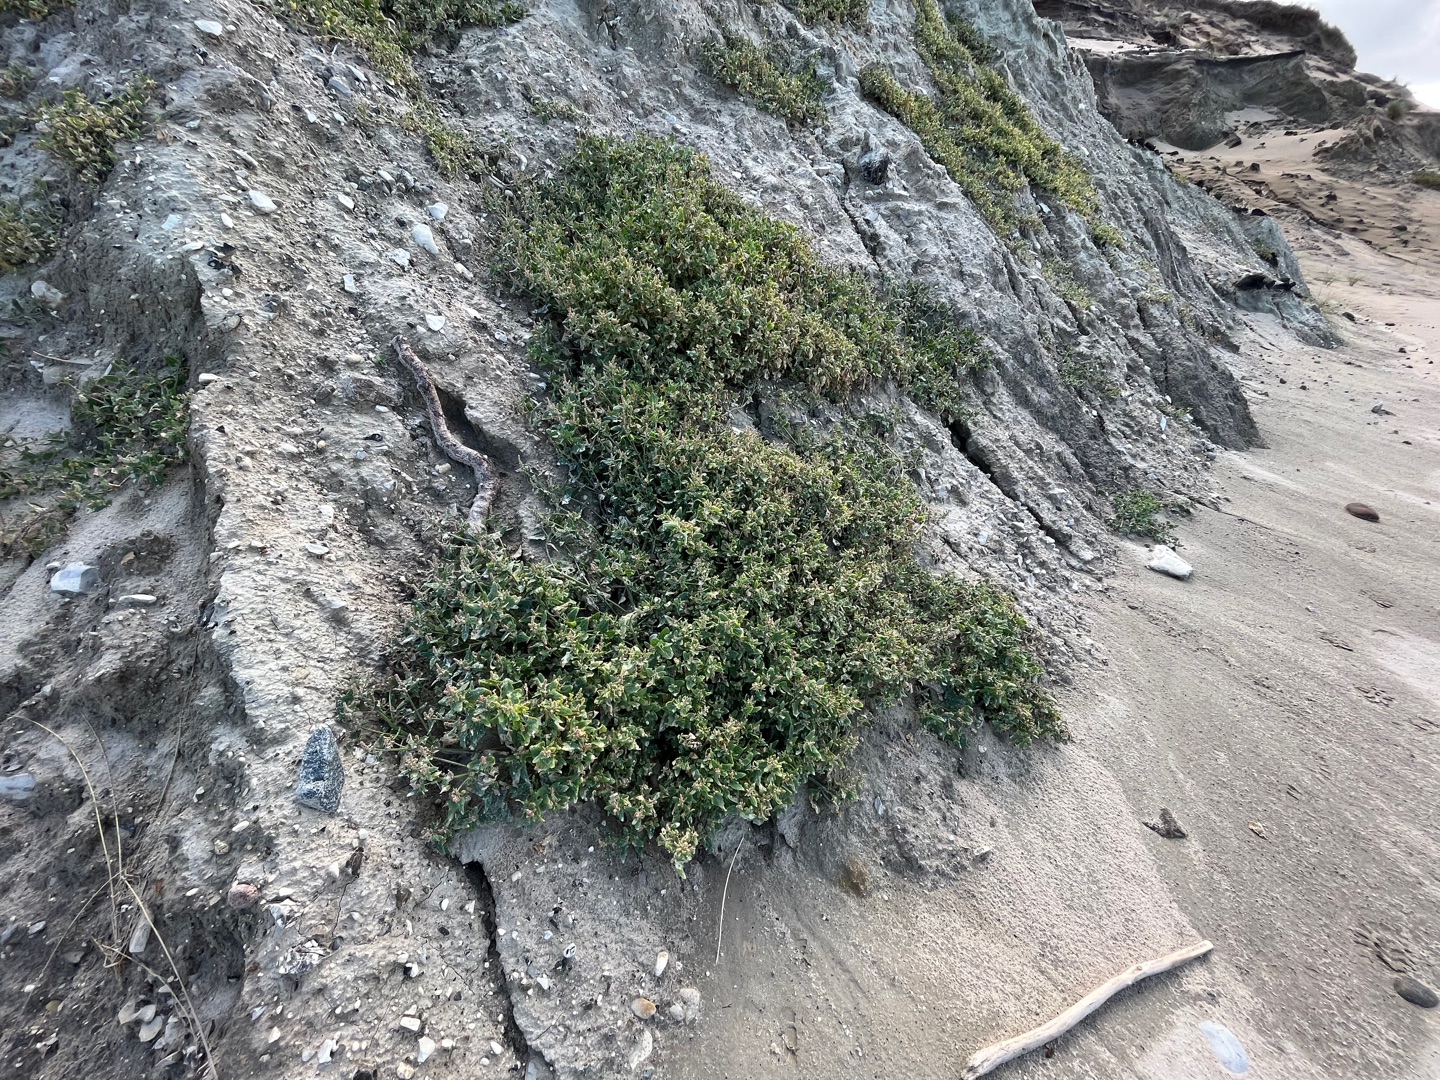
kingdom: Plantae
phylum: Tracheophyta
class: Magnoliopsida
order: Caryophyllales
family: Amaranthaceae
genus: Atriplex
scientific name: Atriplex prostrata
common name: Spyd-mælde
